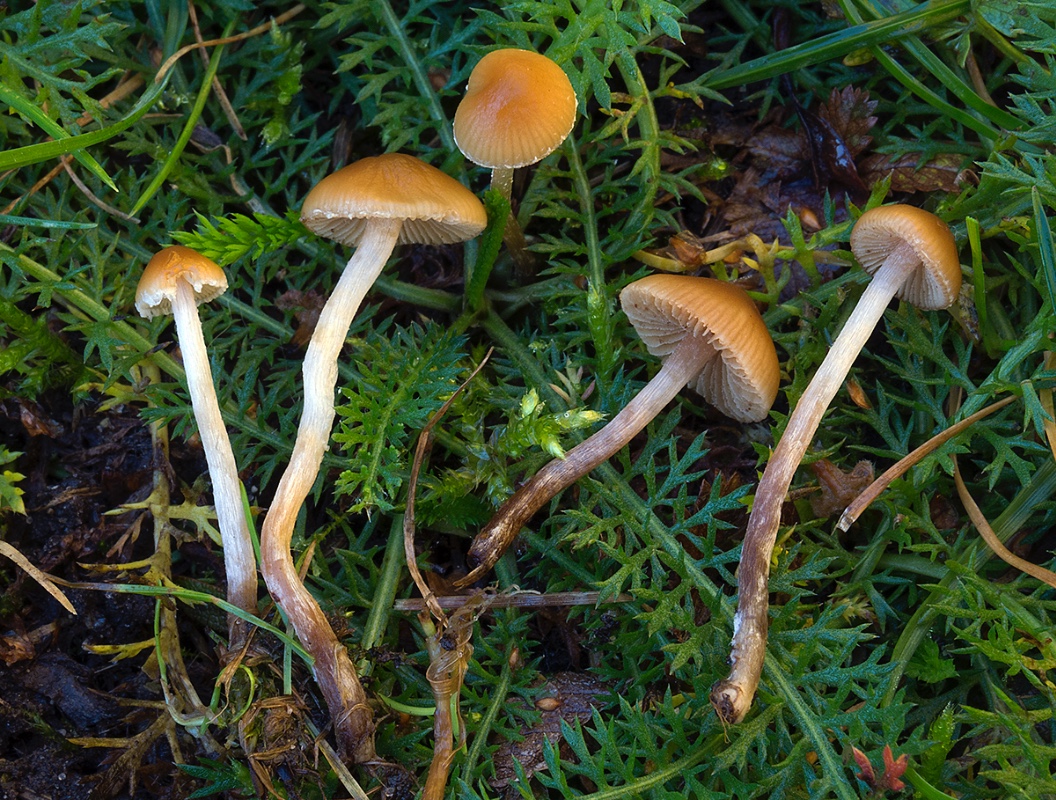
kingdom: Fungi
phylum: Basidiomycota
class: Agaricomycetes
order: Agaricales
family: Bolbitiaceae
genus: Conocybe
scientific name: Conocybe velata
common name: tandet dansehat
